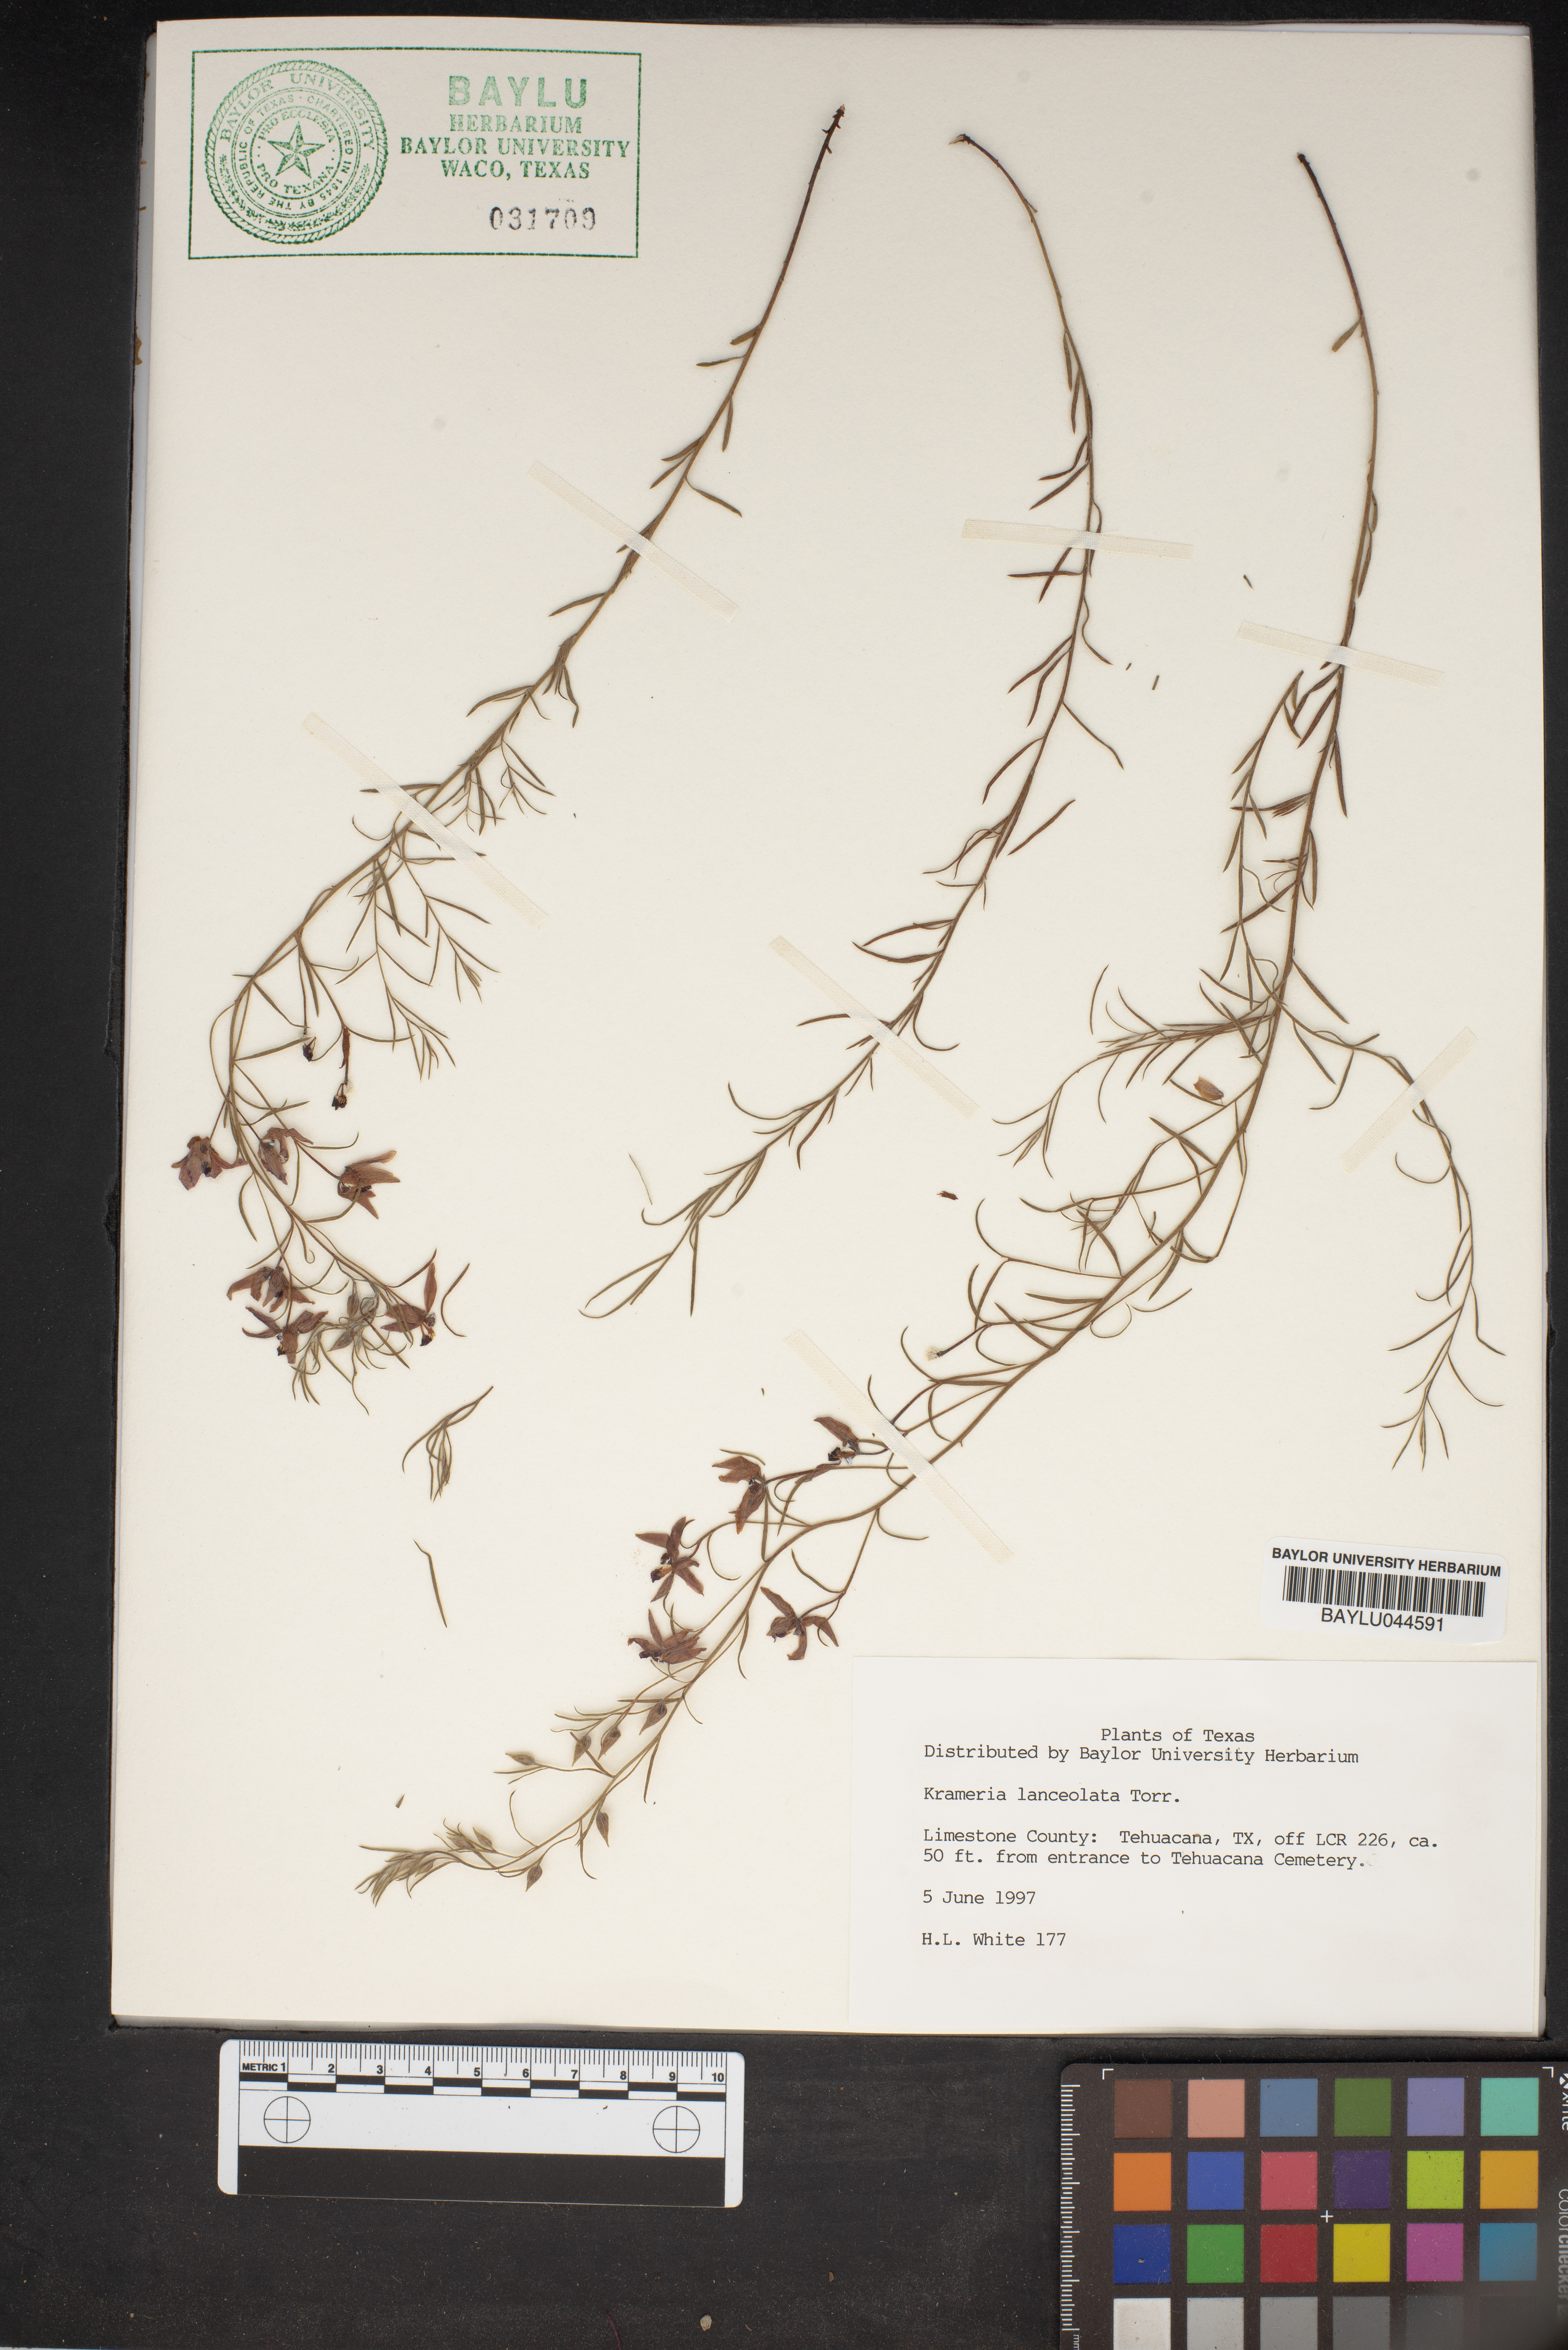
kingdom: Plantae
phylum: Tracheophyta
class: Magnoliopsida
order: Zygophyllales
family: Krameriaceae
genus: Krameria
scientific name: Krameria lanceolata
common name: Ratany
